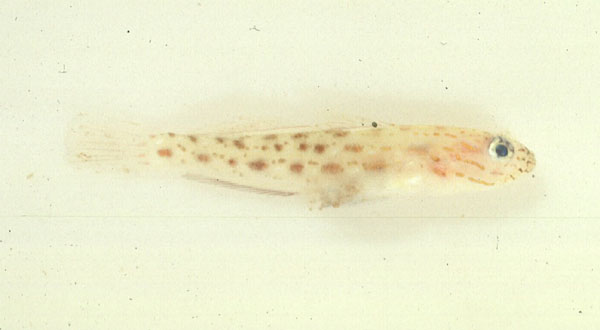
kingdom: Animalia
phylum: Chordata
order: Perciformes
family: Gobiidae
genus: Ctenogobiops
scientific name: Ctenogobiops crocineus
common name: Silverspot shrimpgoby
